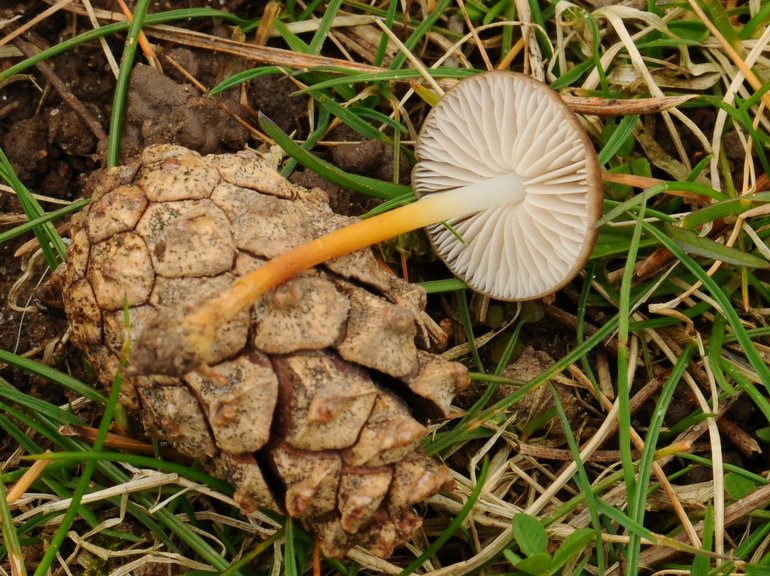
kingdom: Fungi
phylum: Basidiomycota
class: Agaricomycetes
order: Agaricales
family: Physalacriaceae
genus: Strobilurus
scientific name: Strobilurus tenacellus
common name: sommer-koglehat
